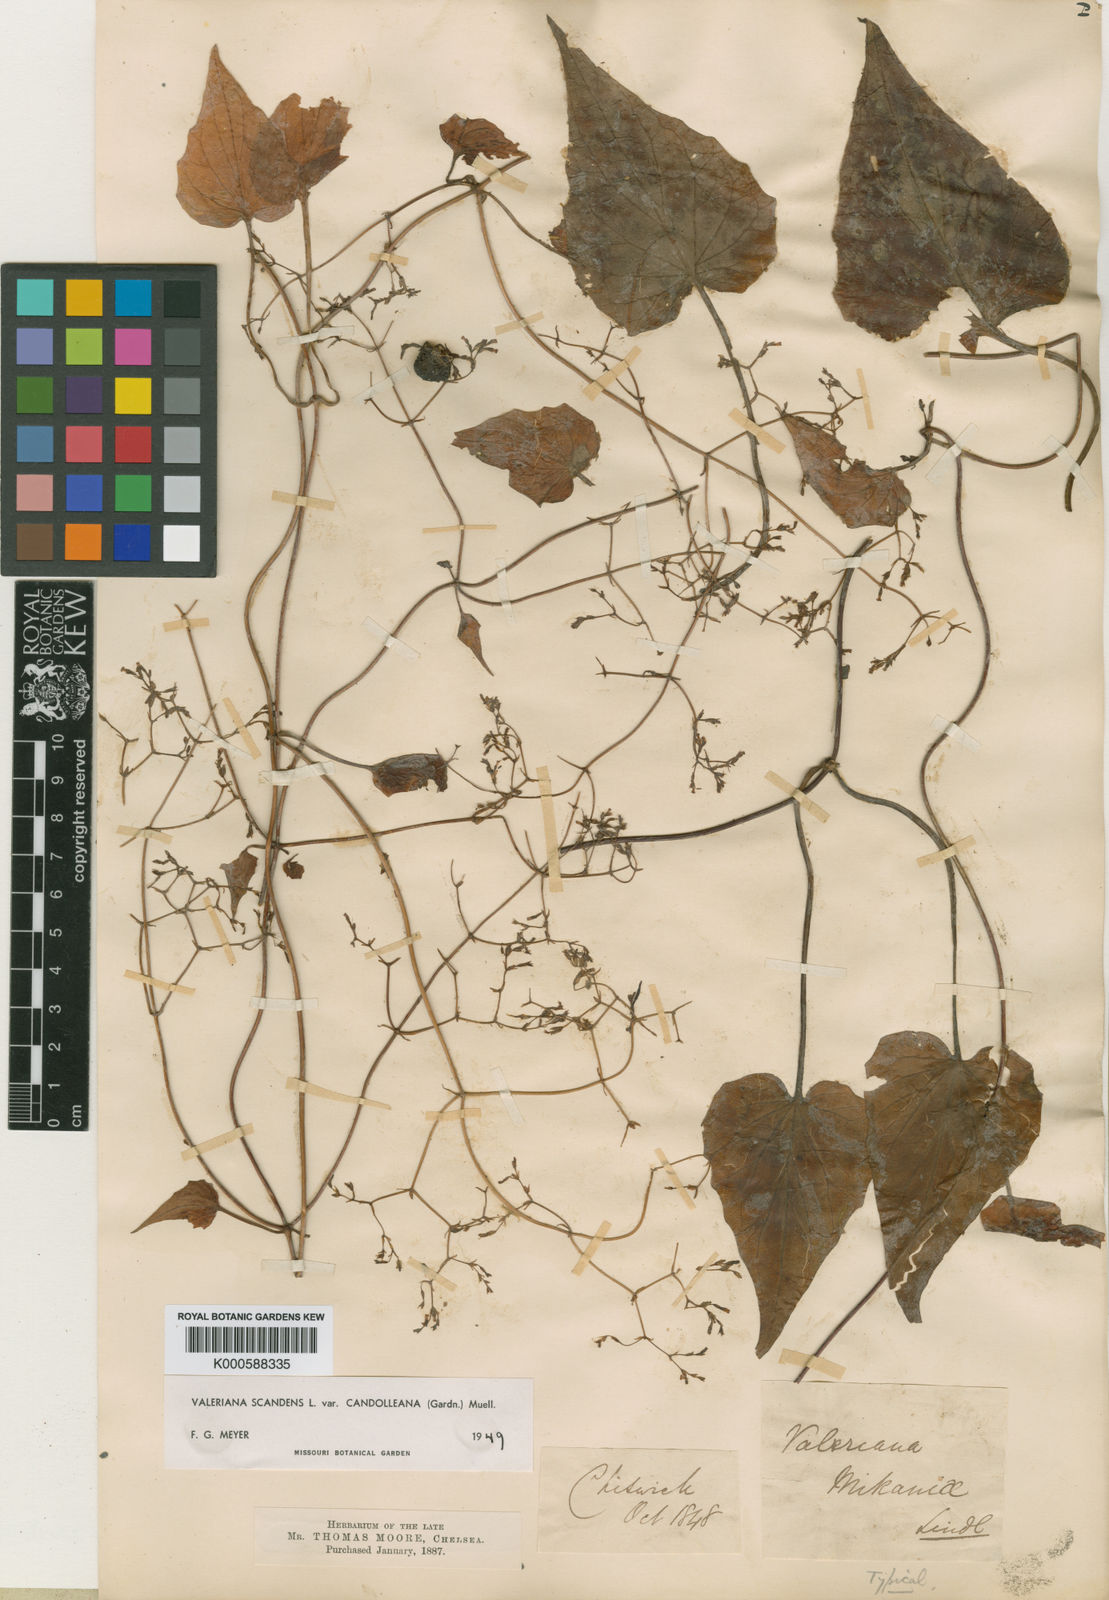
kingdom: Plantae
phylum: Tracheophyta
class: Magnoliopsida
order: Dipsacales
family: Caprifoliaceae
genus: Valeriana
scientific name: Valeriana
